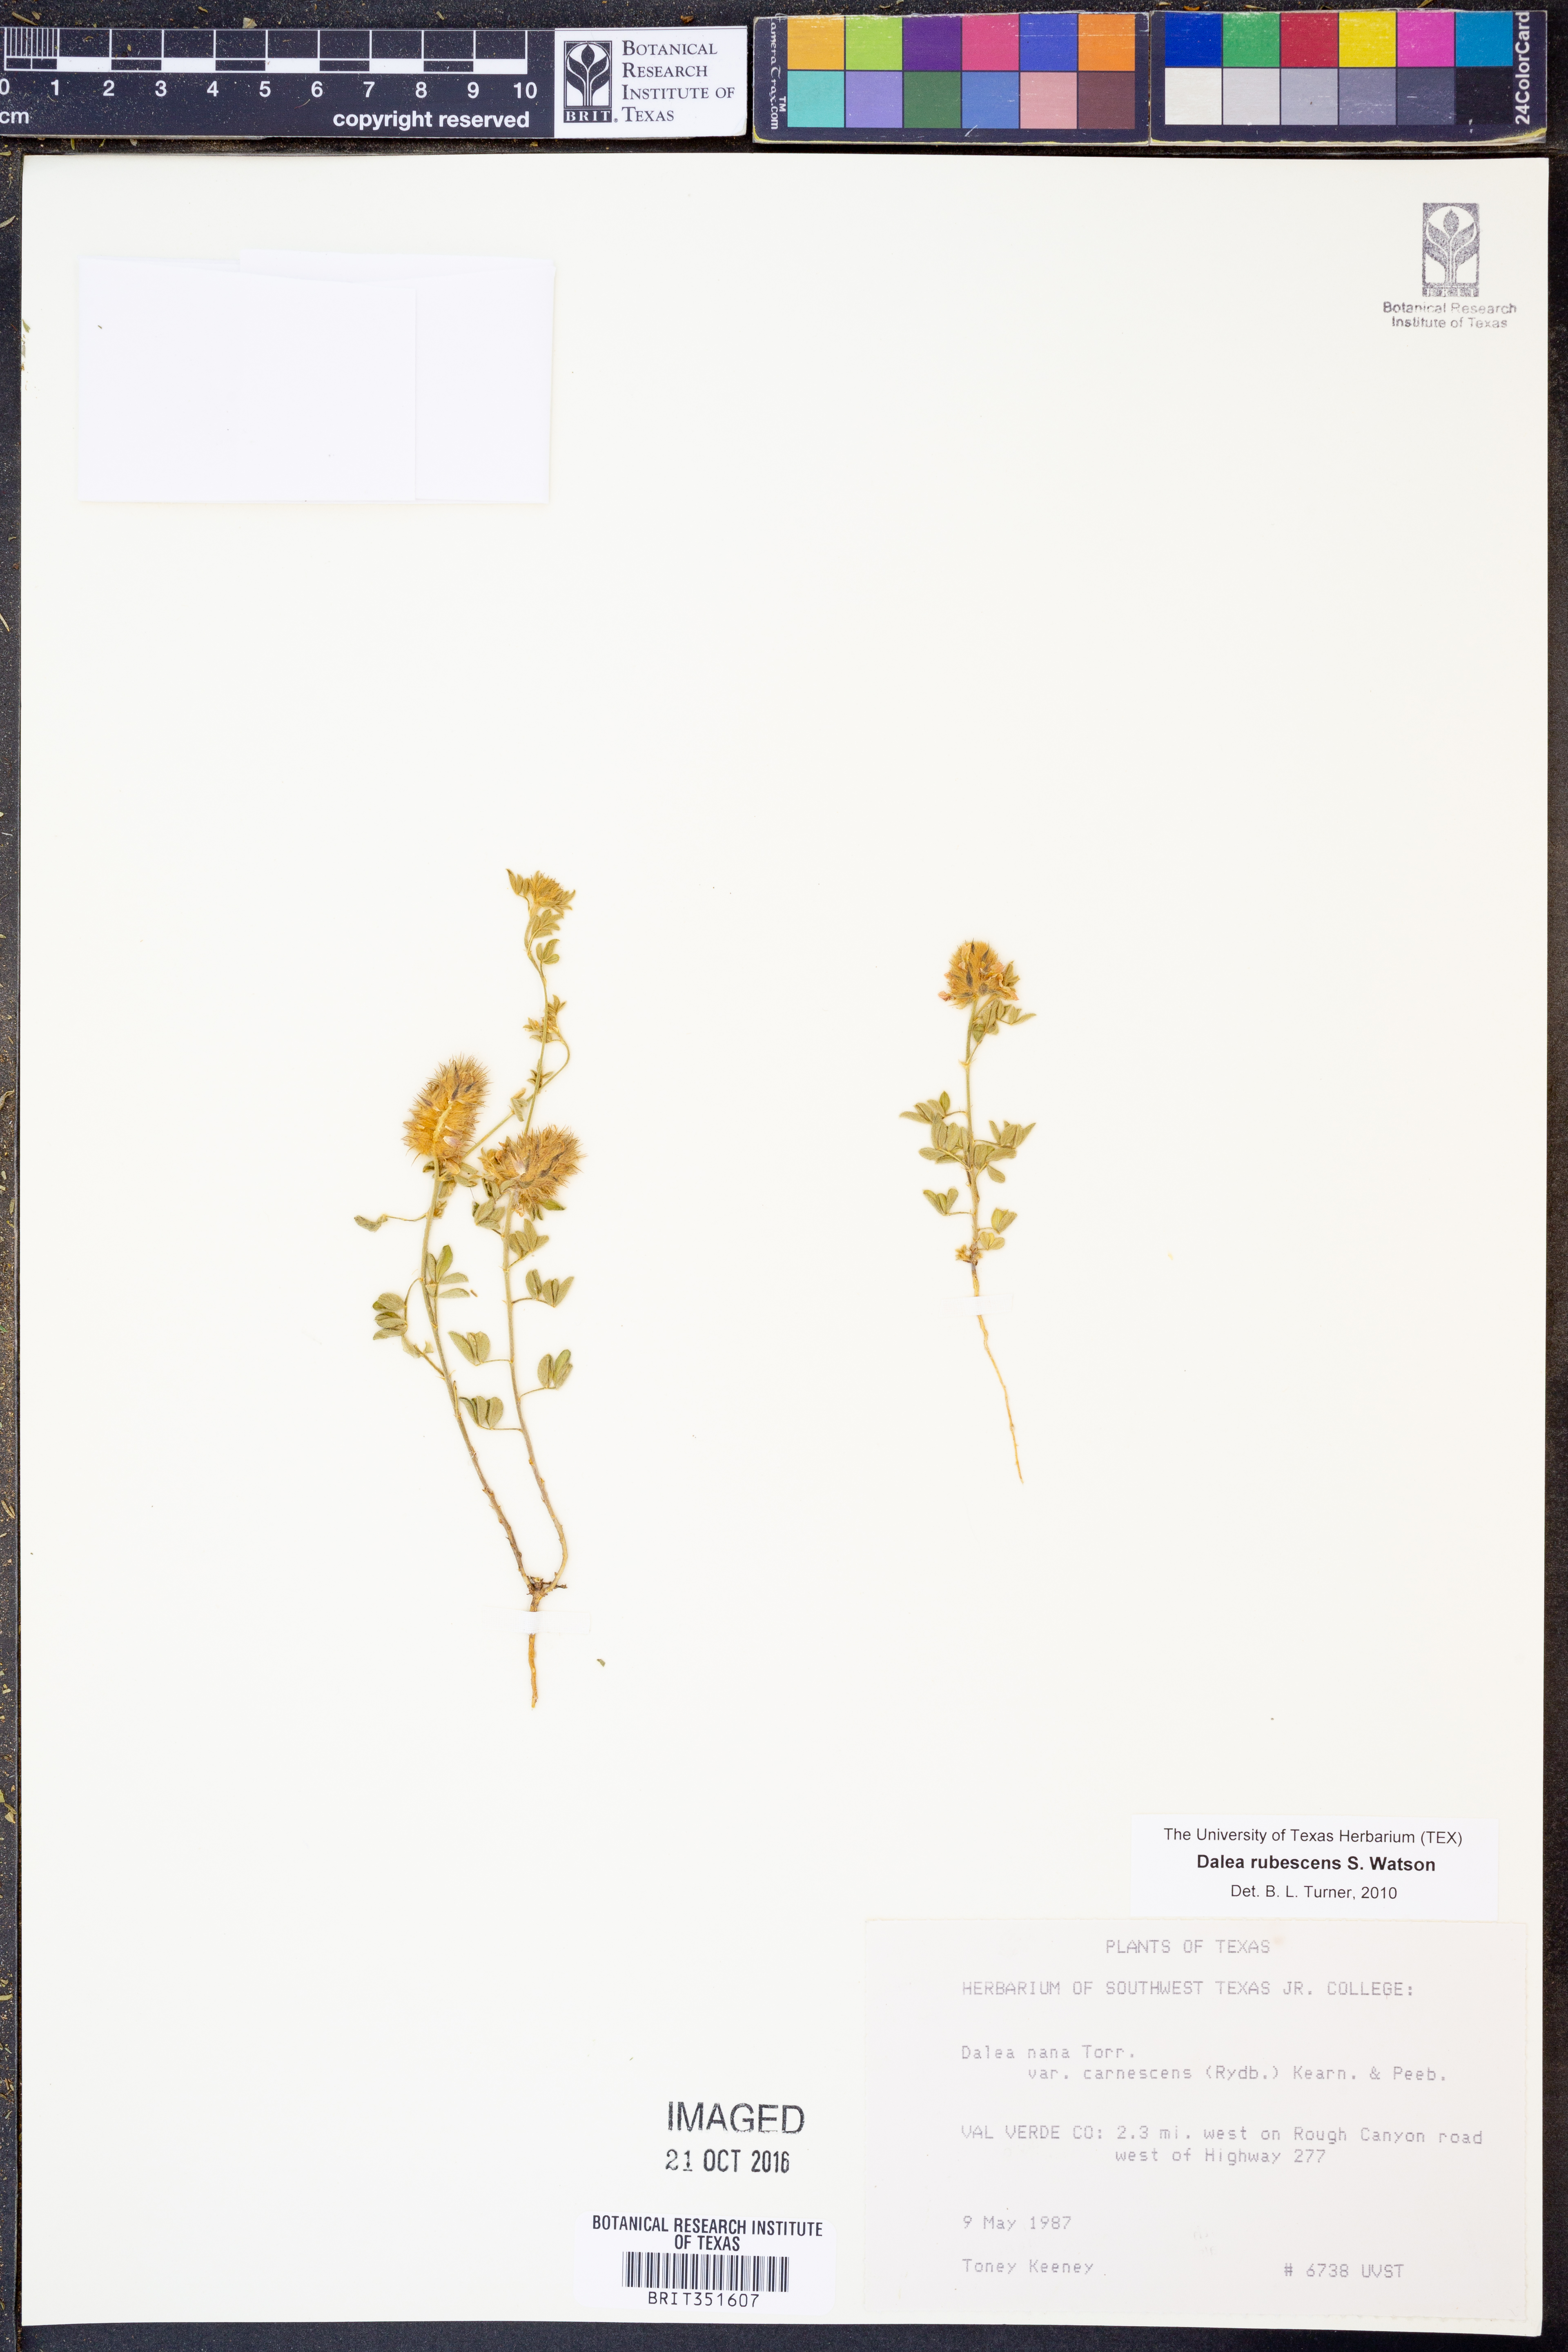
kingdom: Plantae
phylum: Tracheophyta
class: Magnoliopsida
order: Fabales
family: Fabaceae
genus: Dalea
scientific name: Dalea rubescens
